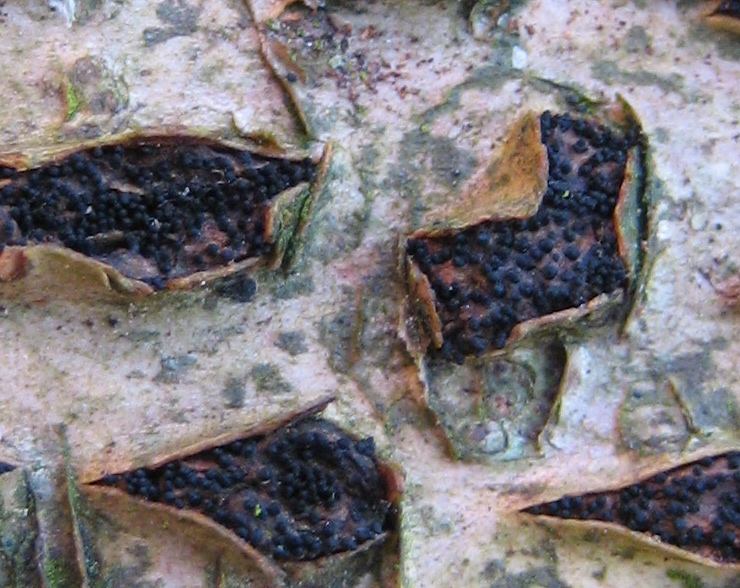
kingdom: Fungi
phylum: Ascomycota
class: Sordariomycetes
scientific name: Sordariomycetes
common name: kernesvampklassen
